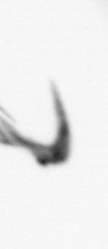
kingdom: Animalia
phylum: Arthropoda
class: Copepoda
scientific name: Copepoda
